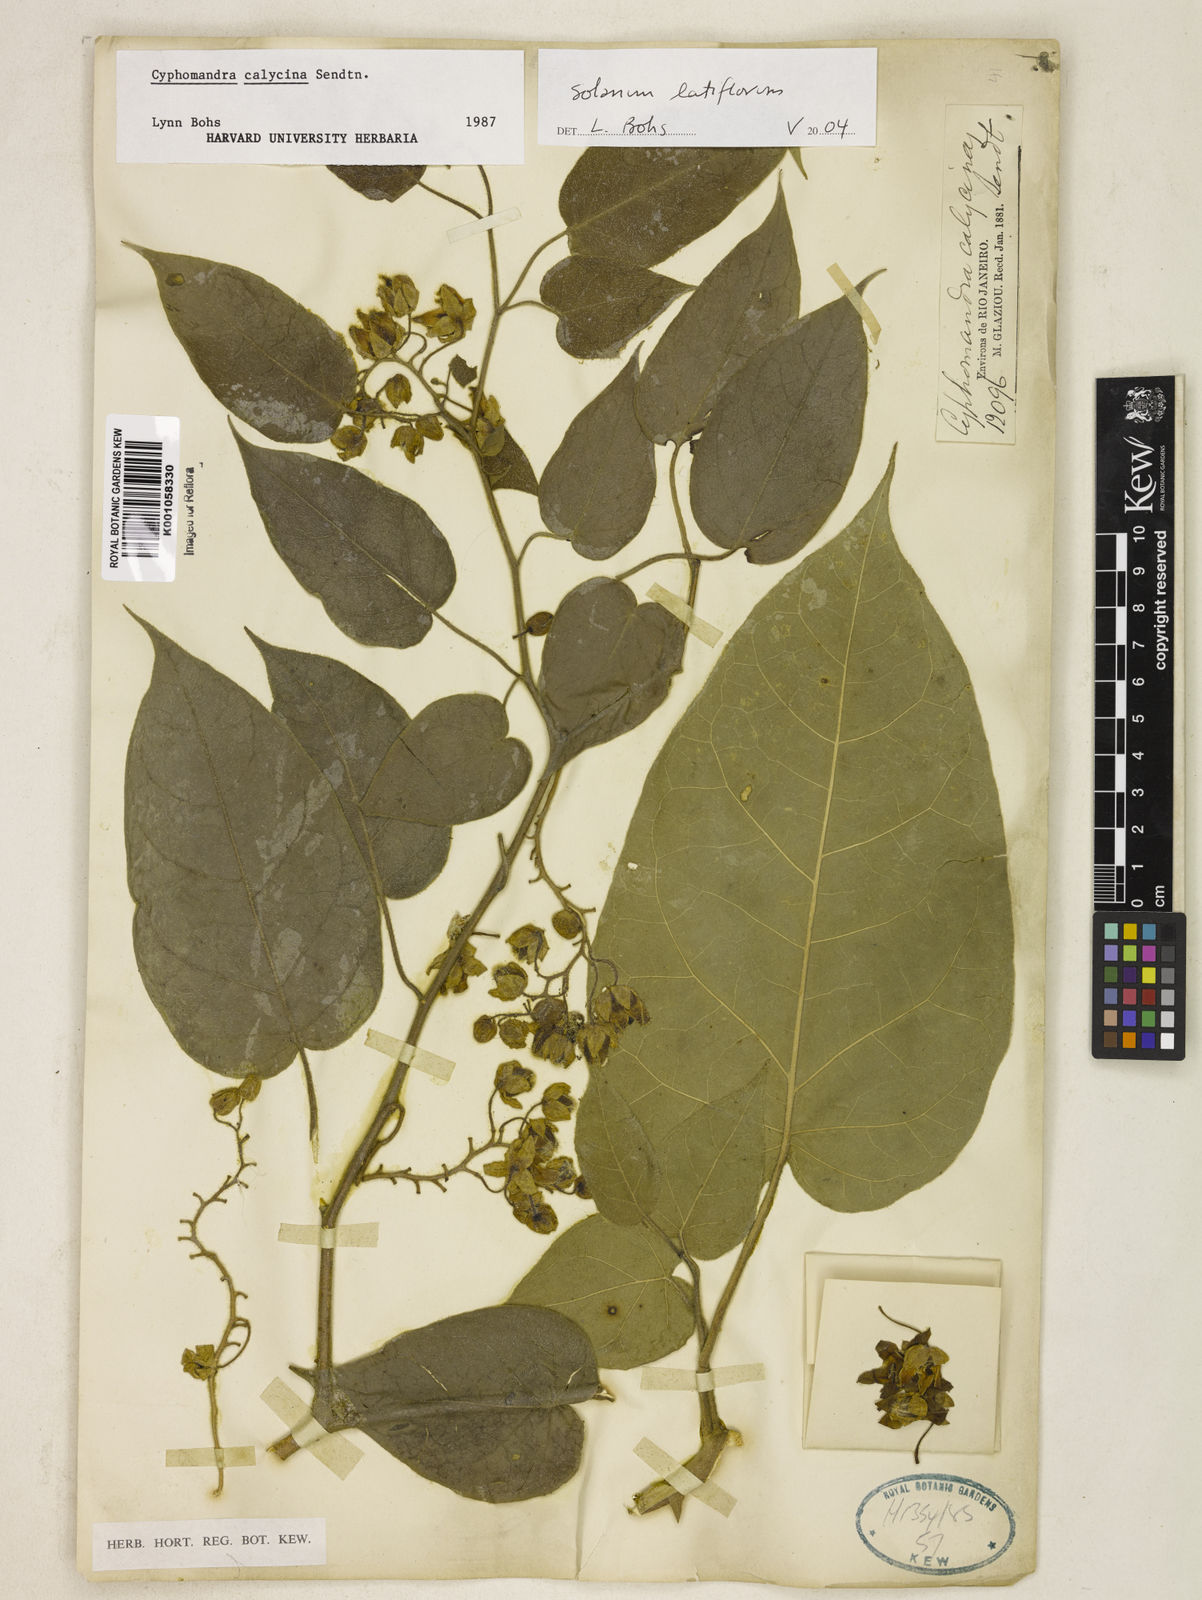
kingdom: Plantae
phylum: Tracheophyta
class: Magnoliopsida
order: Solanales
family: Solanaceae
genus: Solanum
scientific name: Solanum latiflorum
